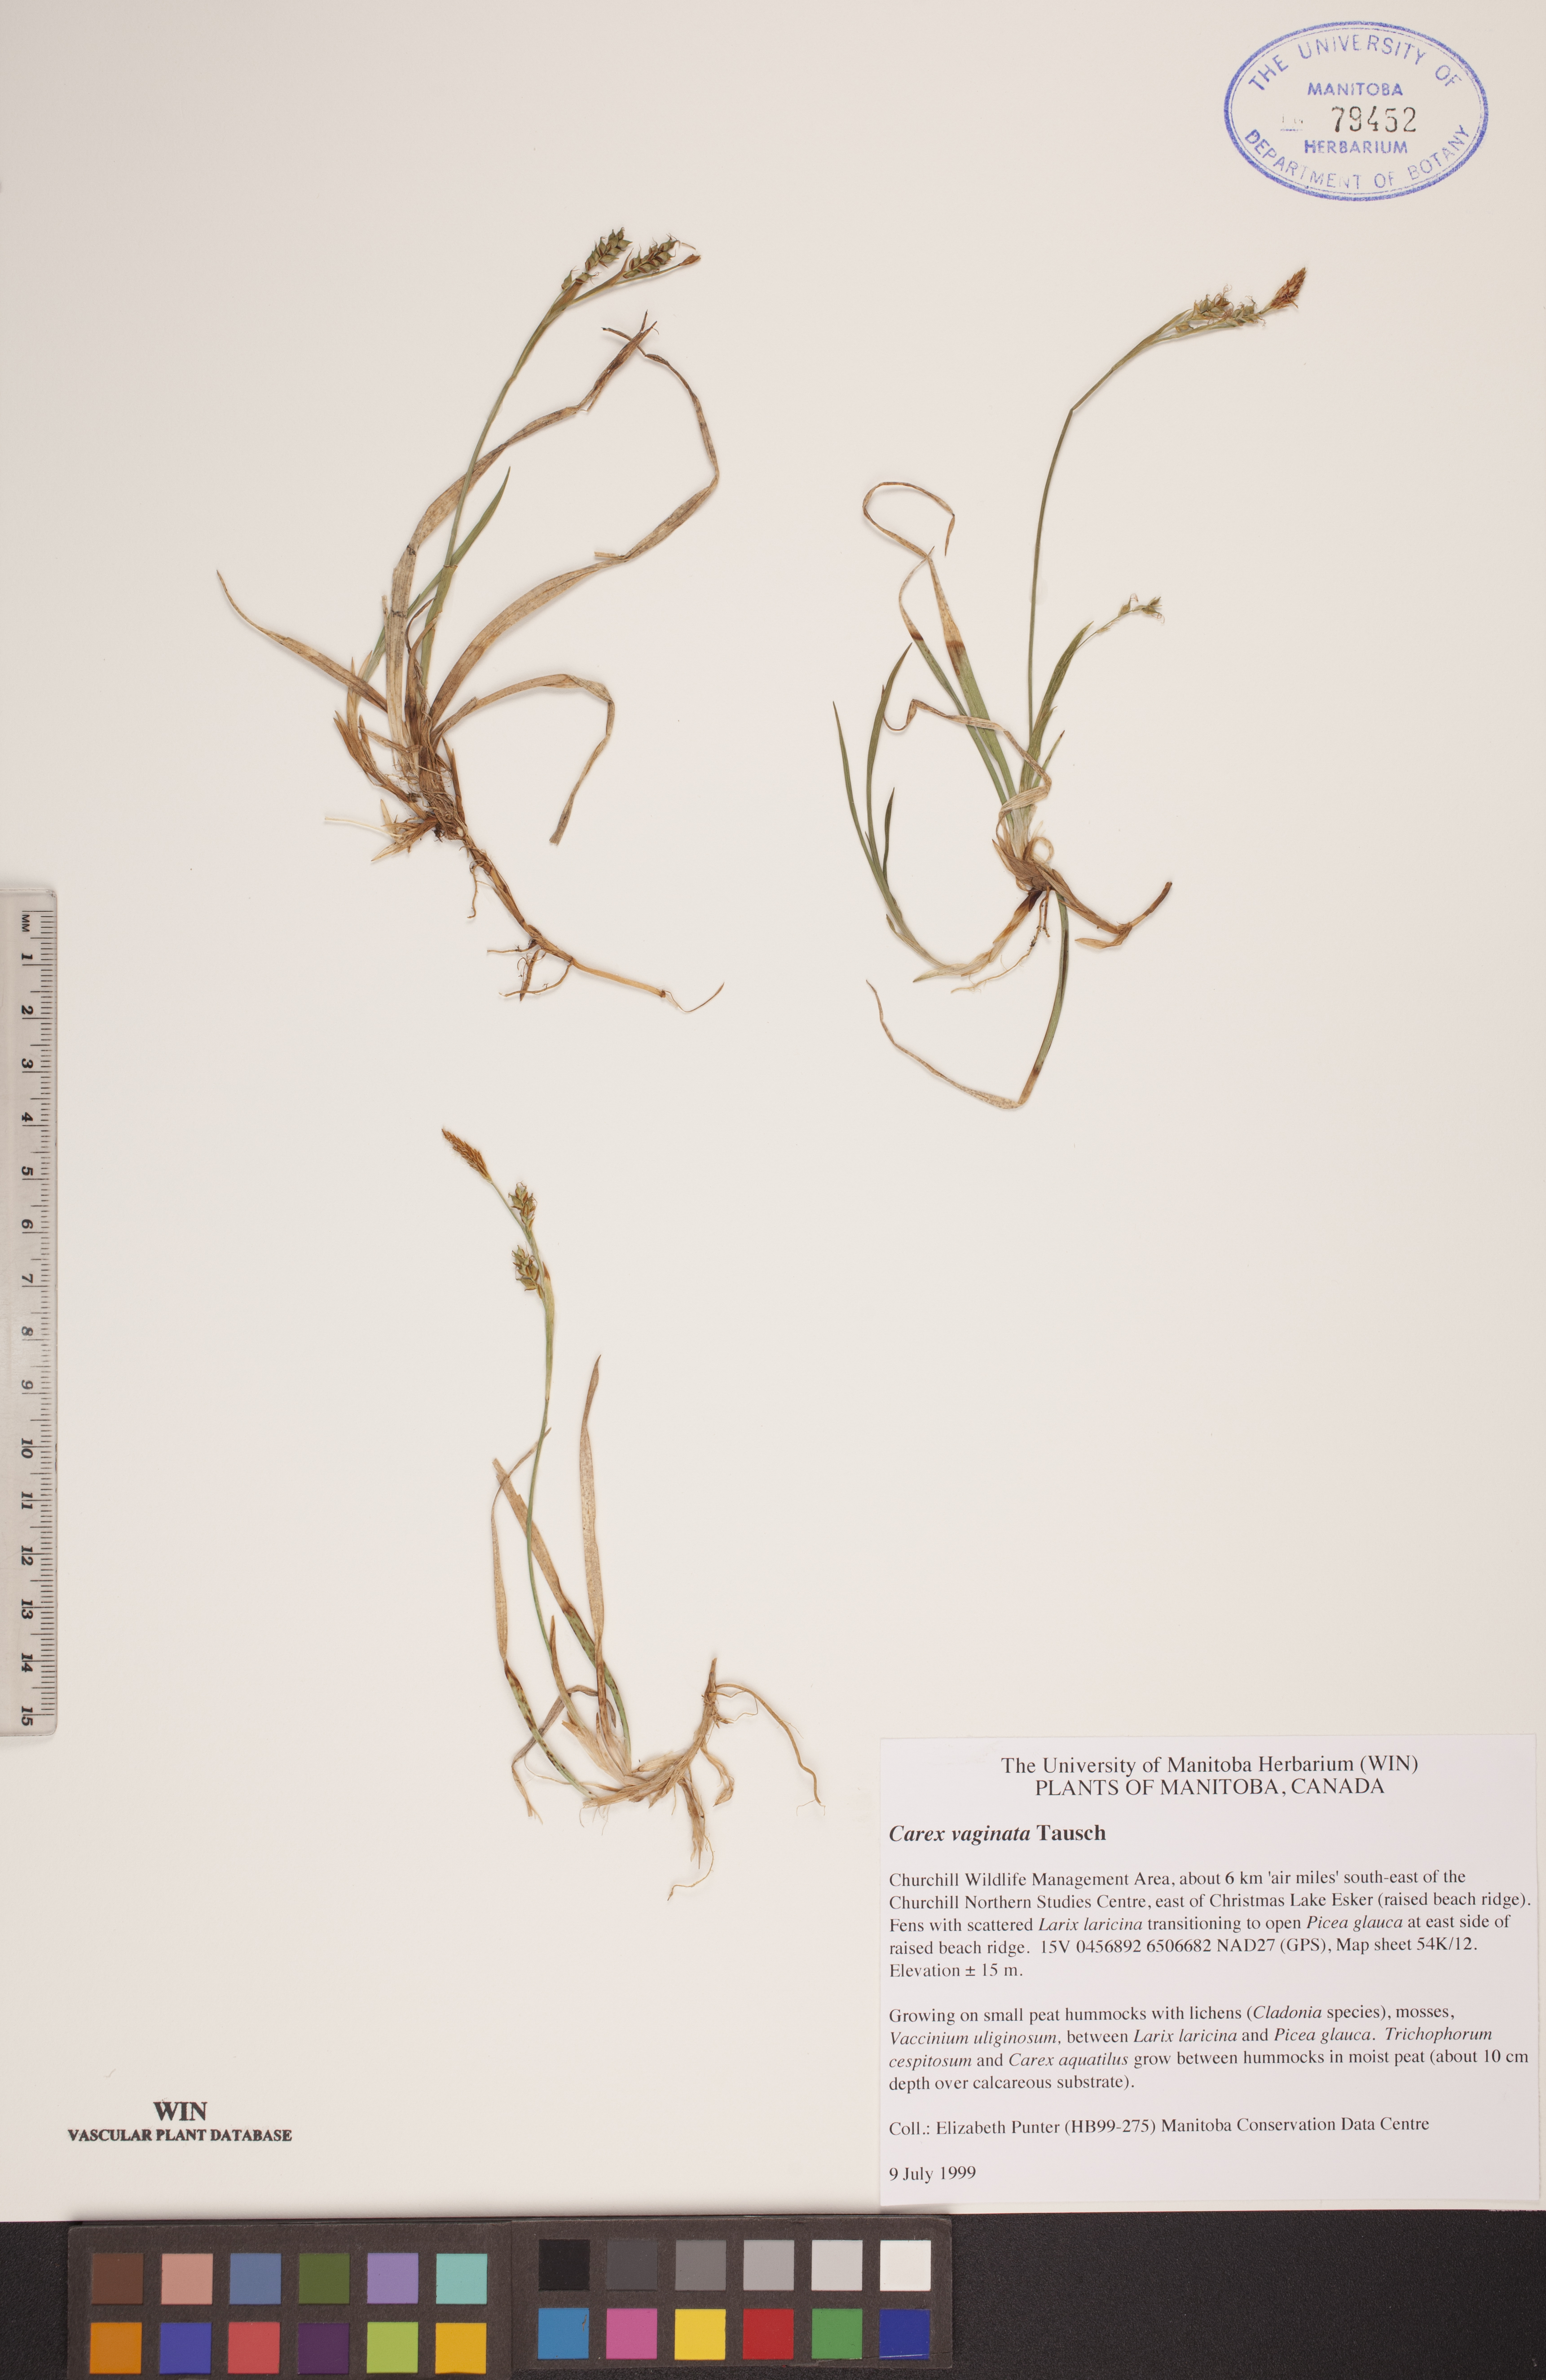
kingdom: Plantae
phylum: Tracheophyta
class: Liliopsida
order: Poales
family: Cyperaceae
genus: Carex
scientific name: Carex vaginata
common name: Sheathed sedge
